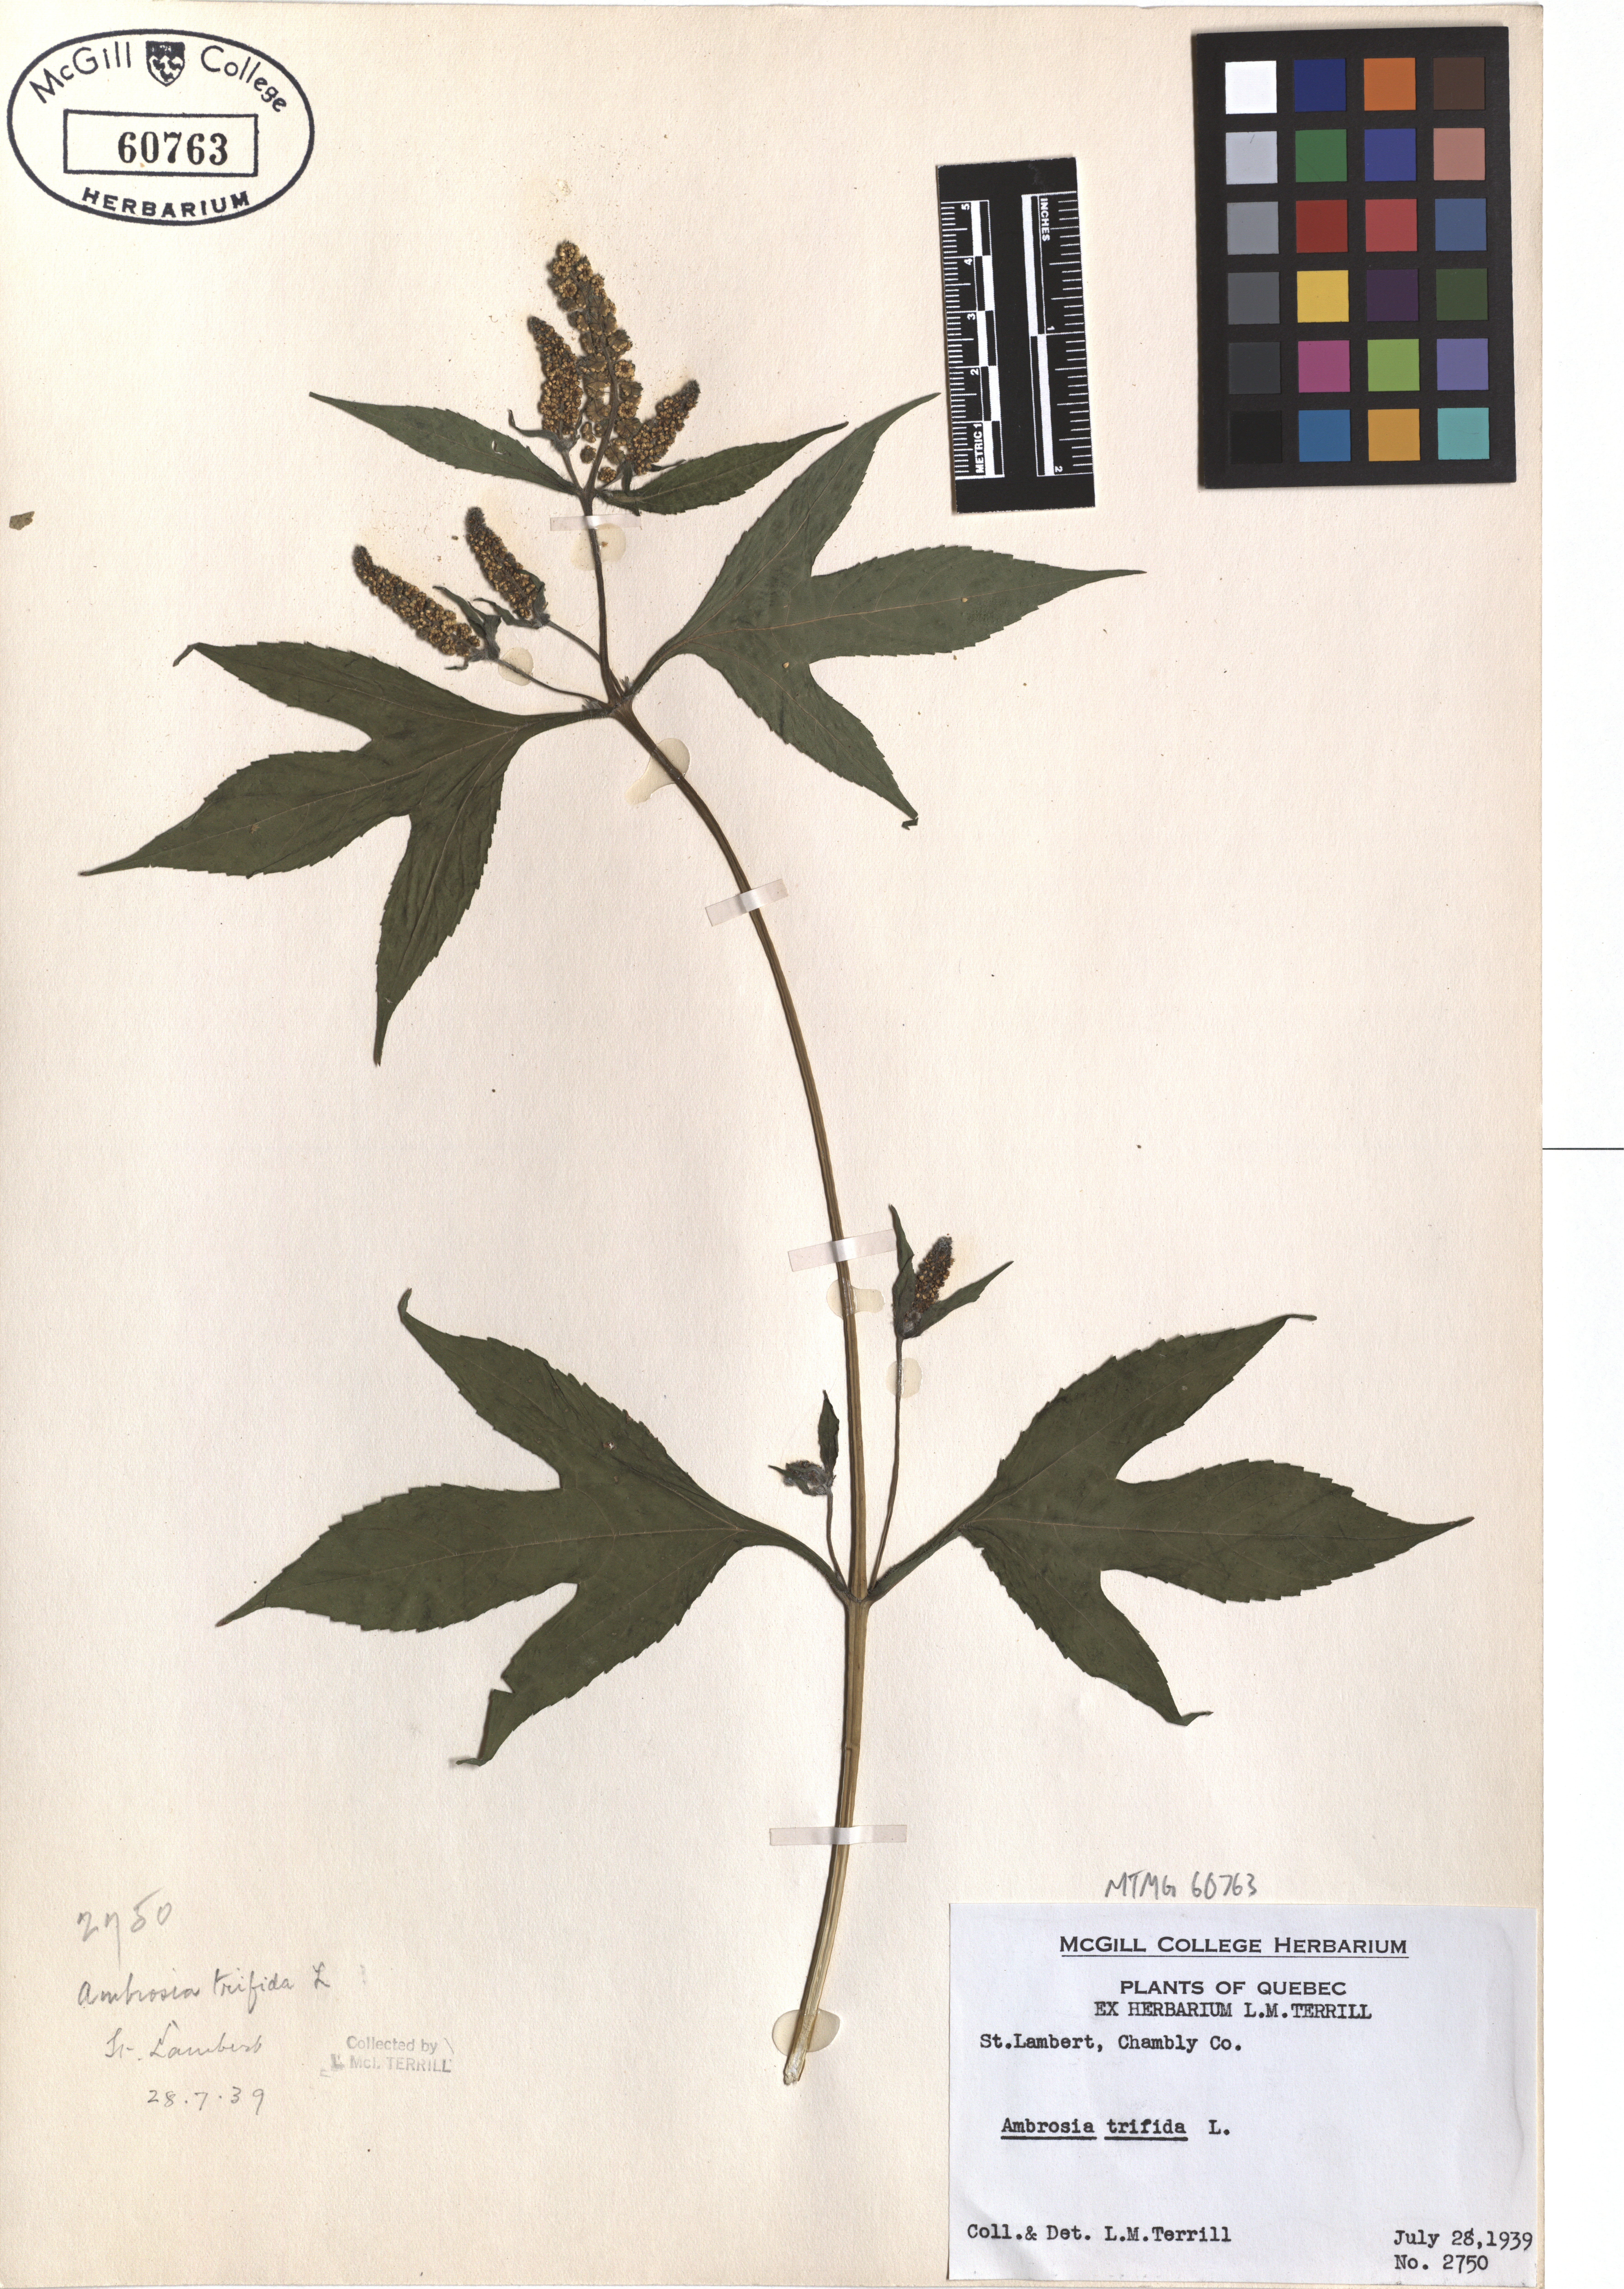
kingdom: Plantae
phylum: Tracheophyta
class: Magnoliopsida
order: Asterales
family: Asteraceae
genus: Ambrosia
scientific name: Ambrosia trifida
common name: Giant ragweed
